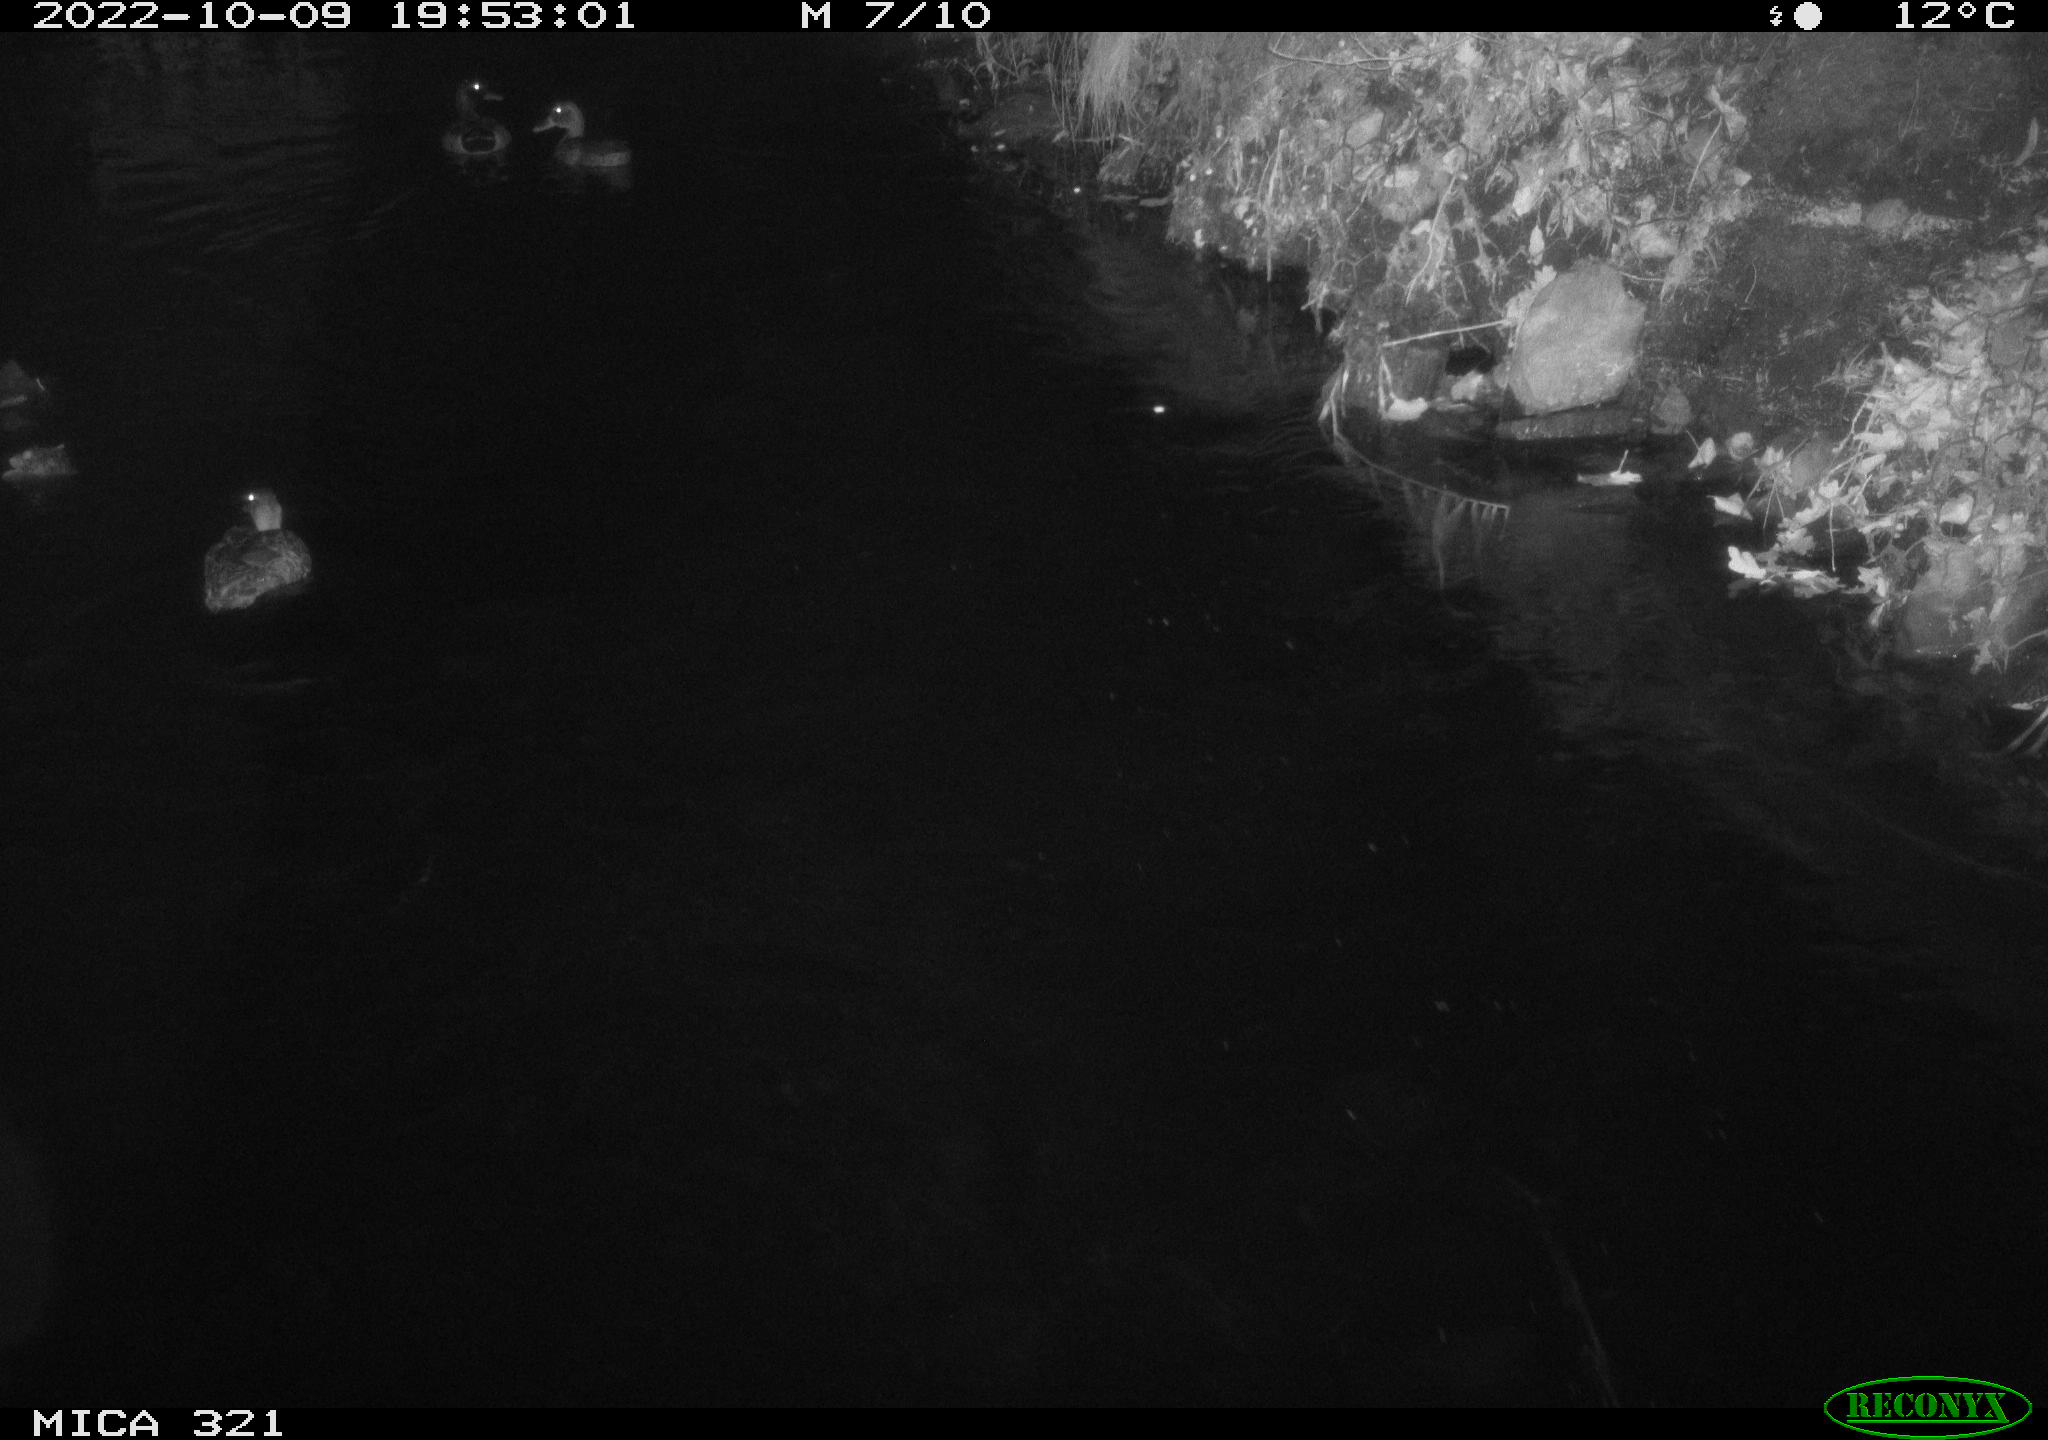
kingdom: Animalia
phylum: Chordata
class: Aves
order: Anseriformes
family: Anatidae
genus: Anas
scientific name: Anas
